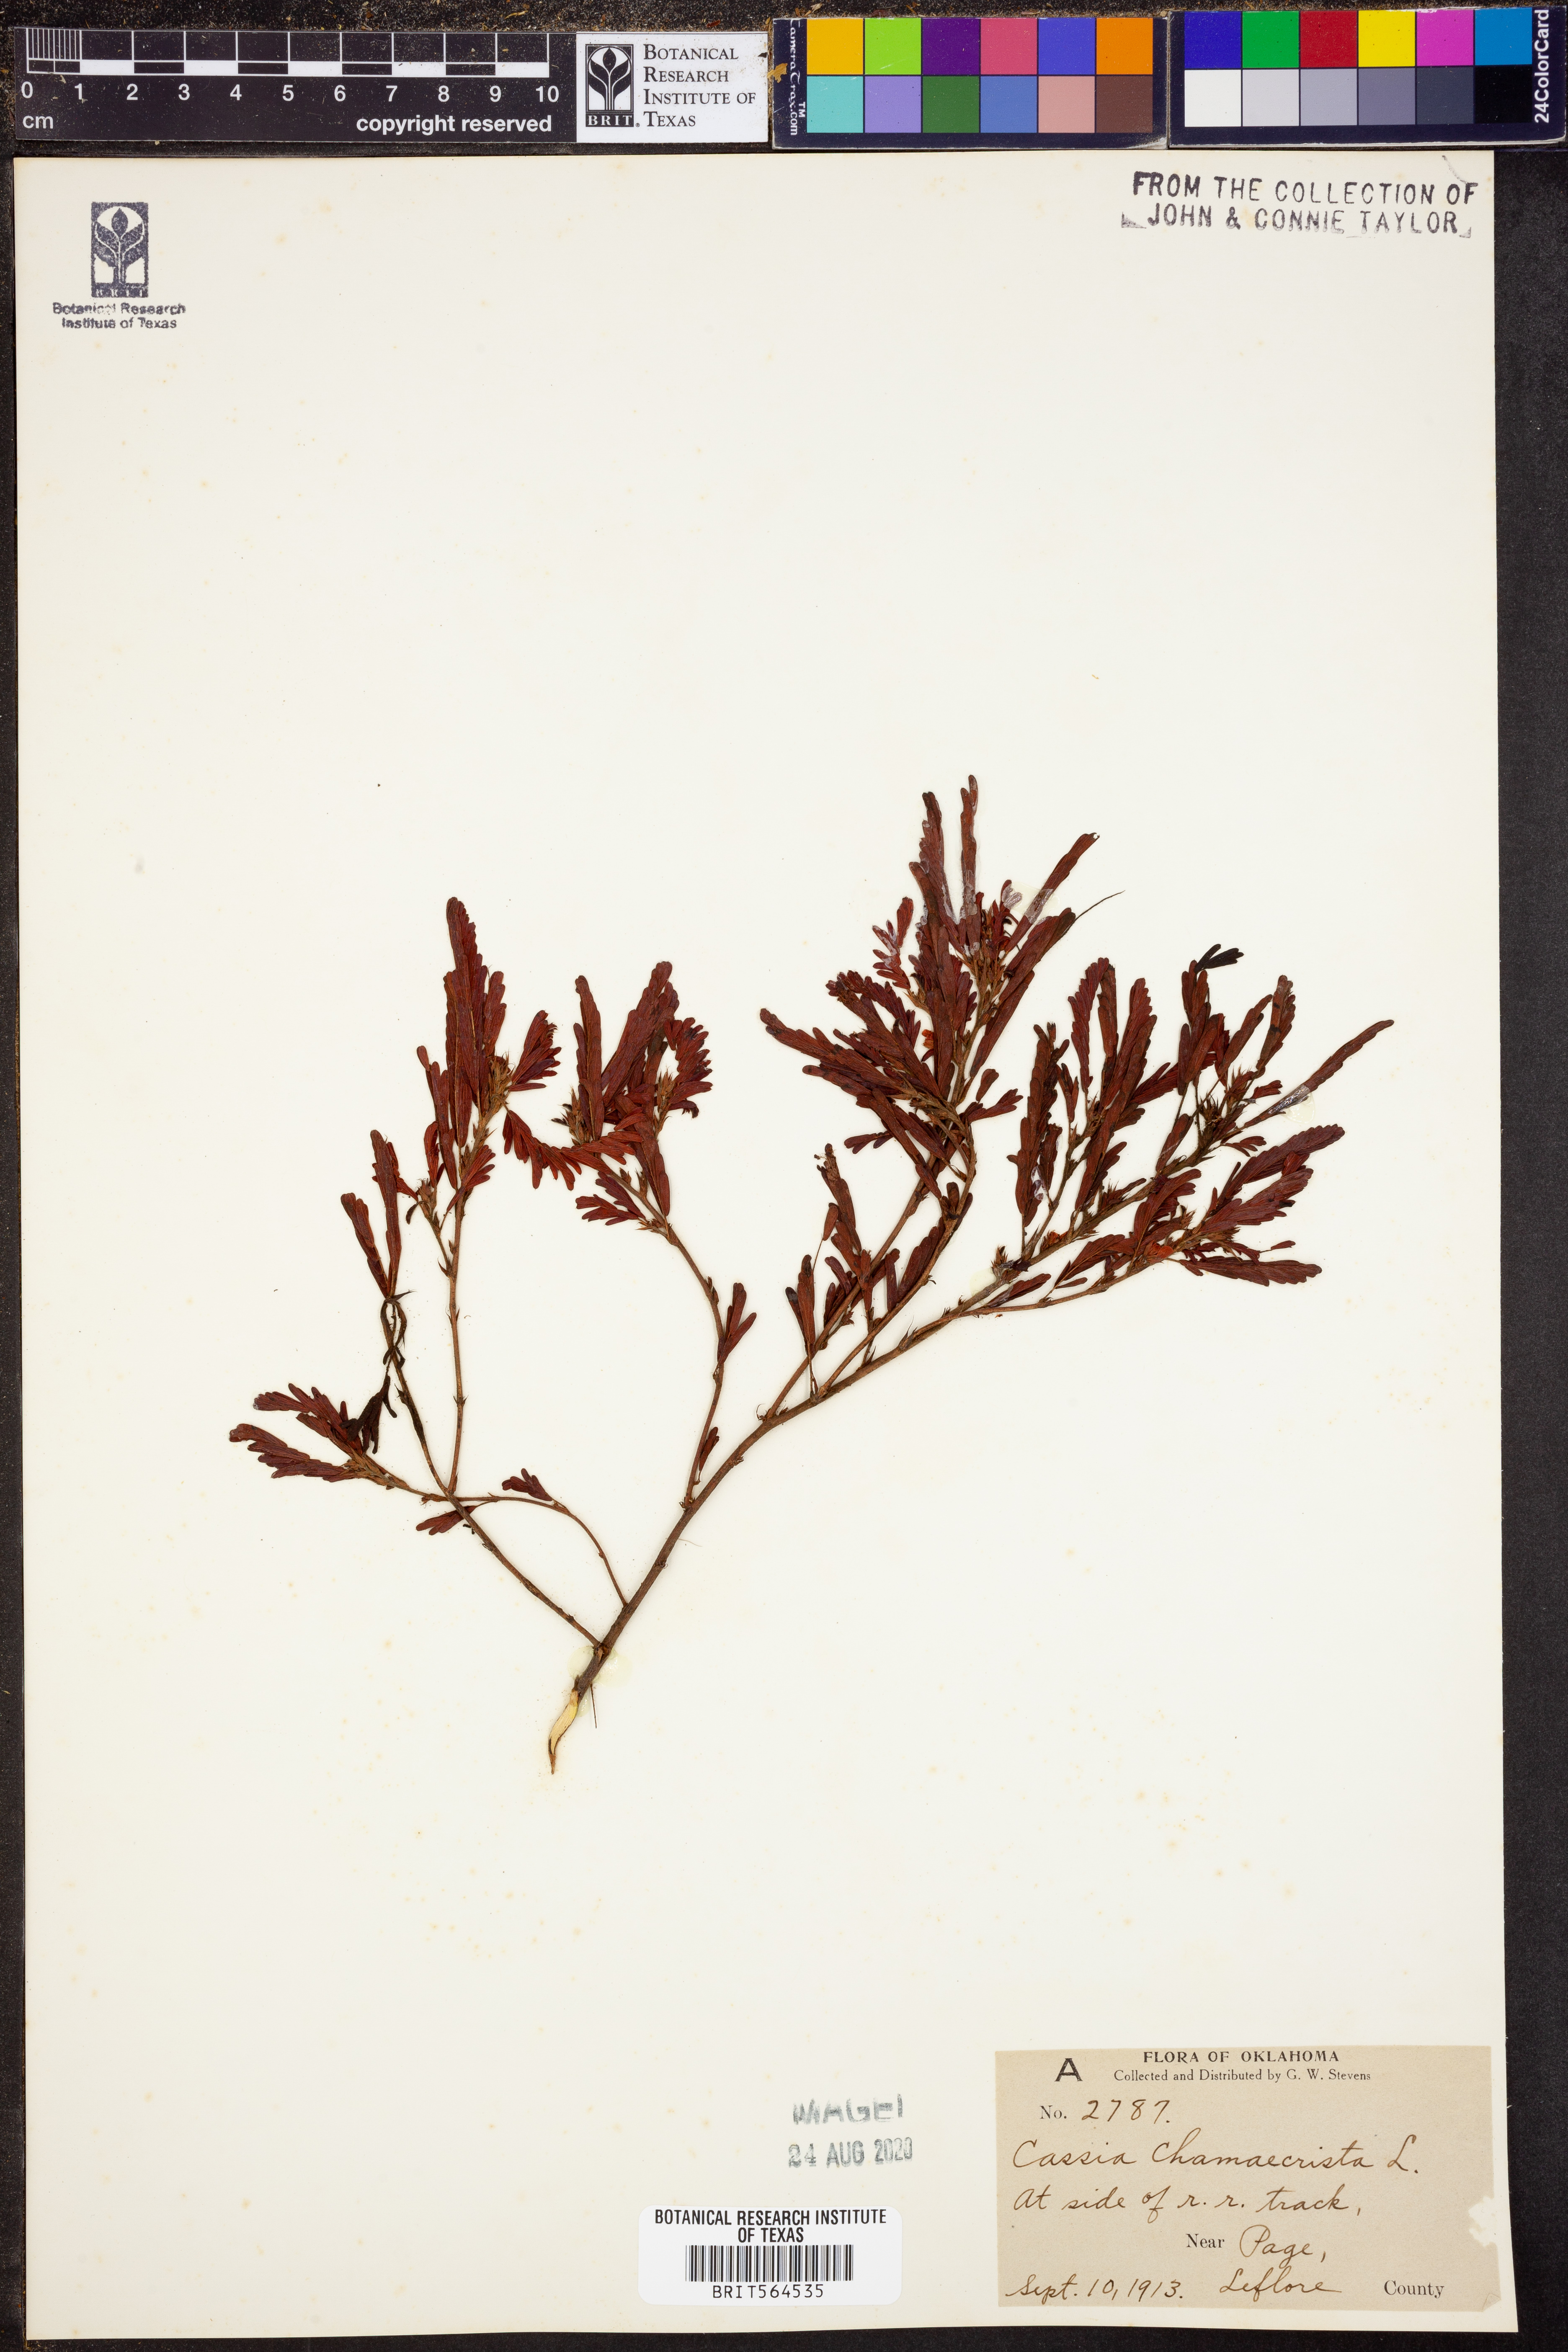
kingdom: Plantae
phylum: Tracheophyta
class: Magnoliopsida
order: Fabales
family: Fabaceae
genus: Chamaecrista
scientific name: Chamaecrista fasciculata
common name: Golden cassia
